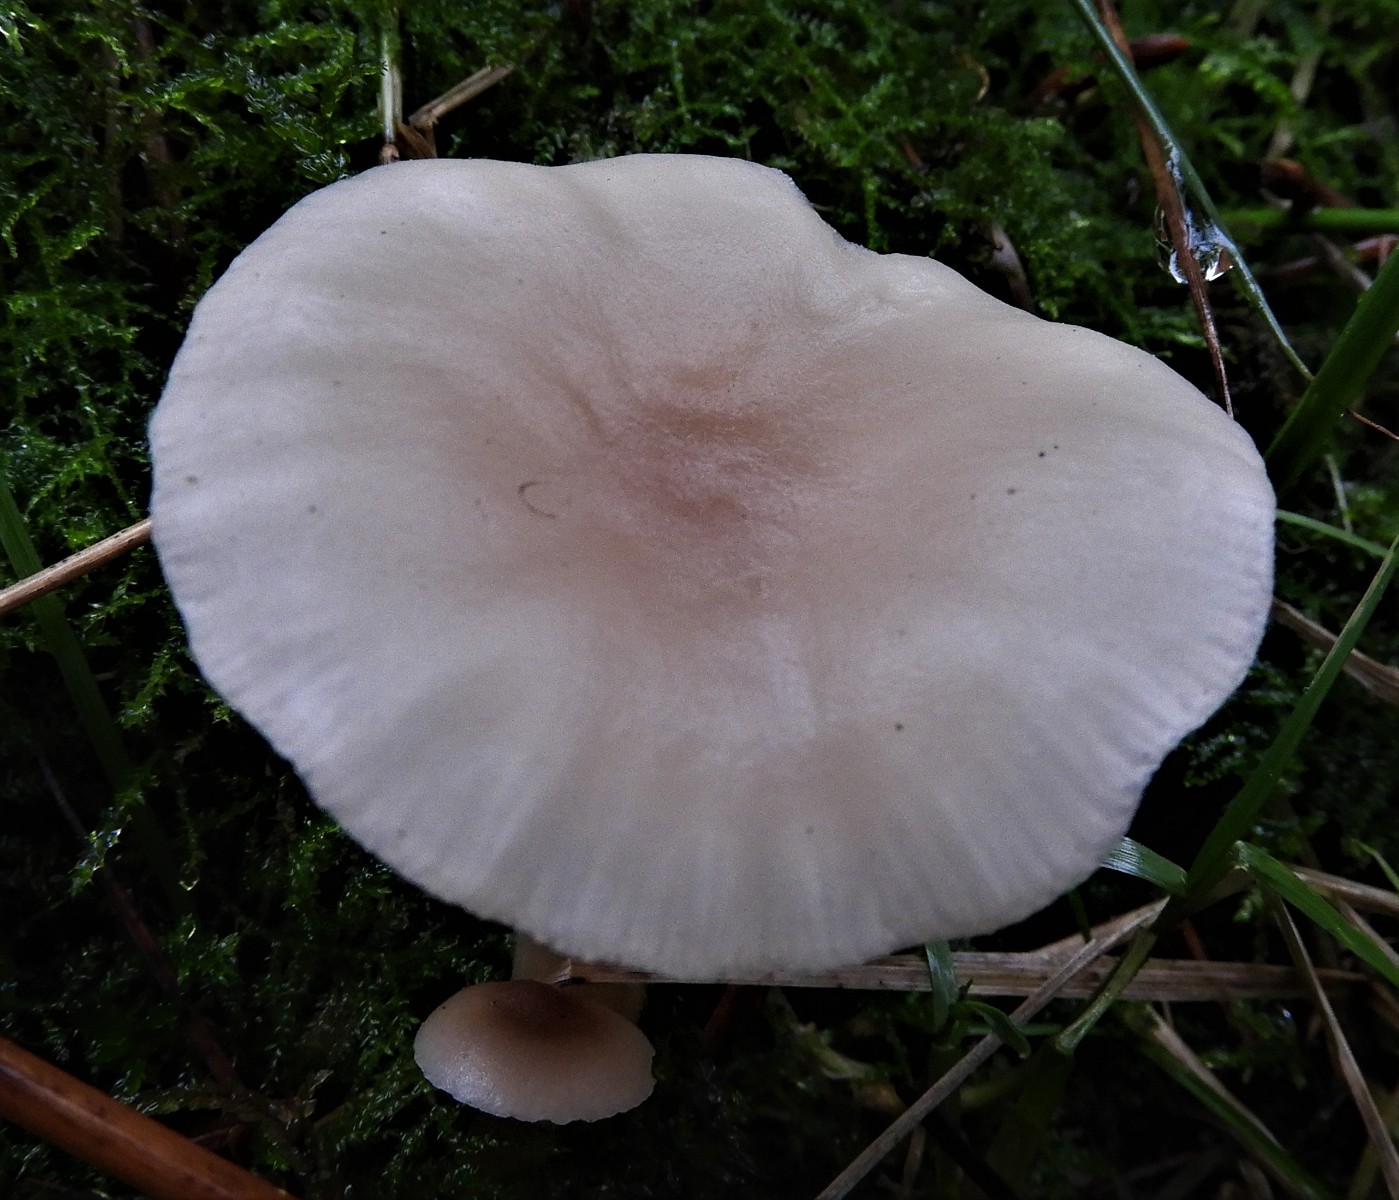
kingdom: Fungi
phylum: Basidiomycota
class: Agaricomycetes
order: Agaricales
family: Tricholomataceae
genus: Clitocybe
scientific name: Clitocybe fragrans
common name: vellugtende tragthat
